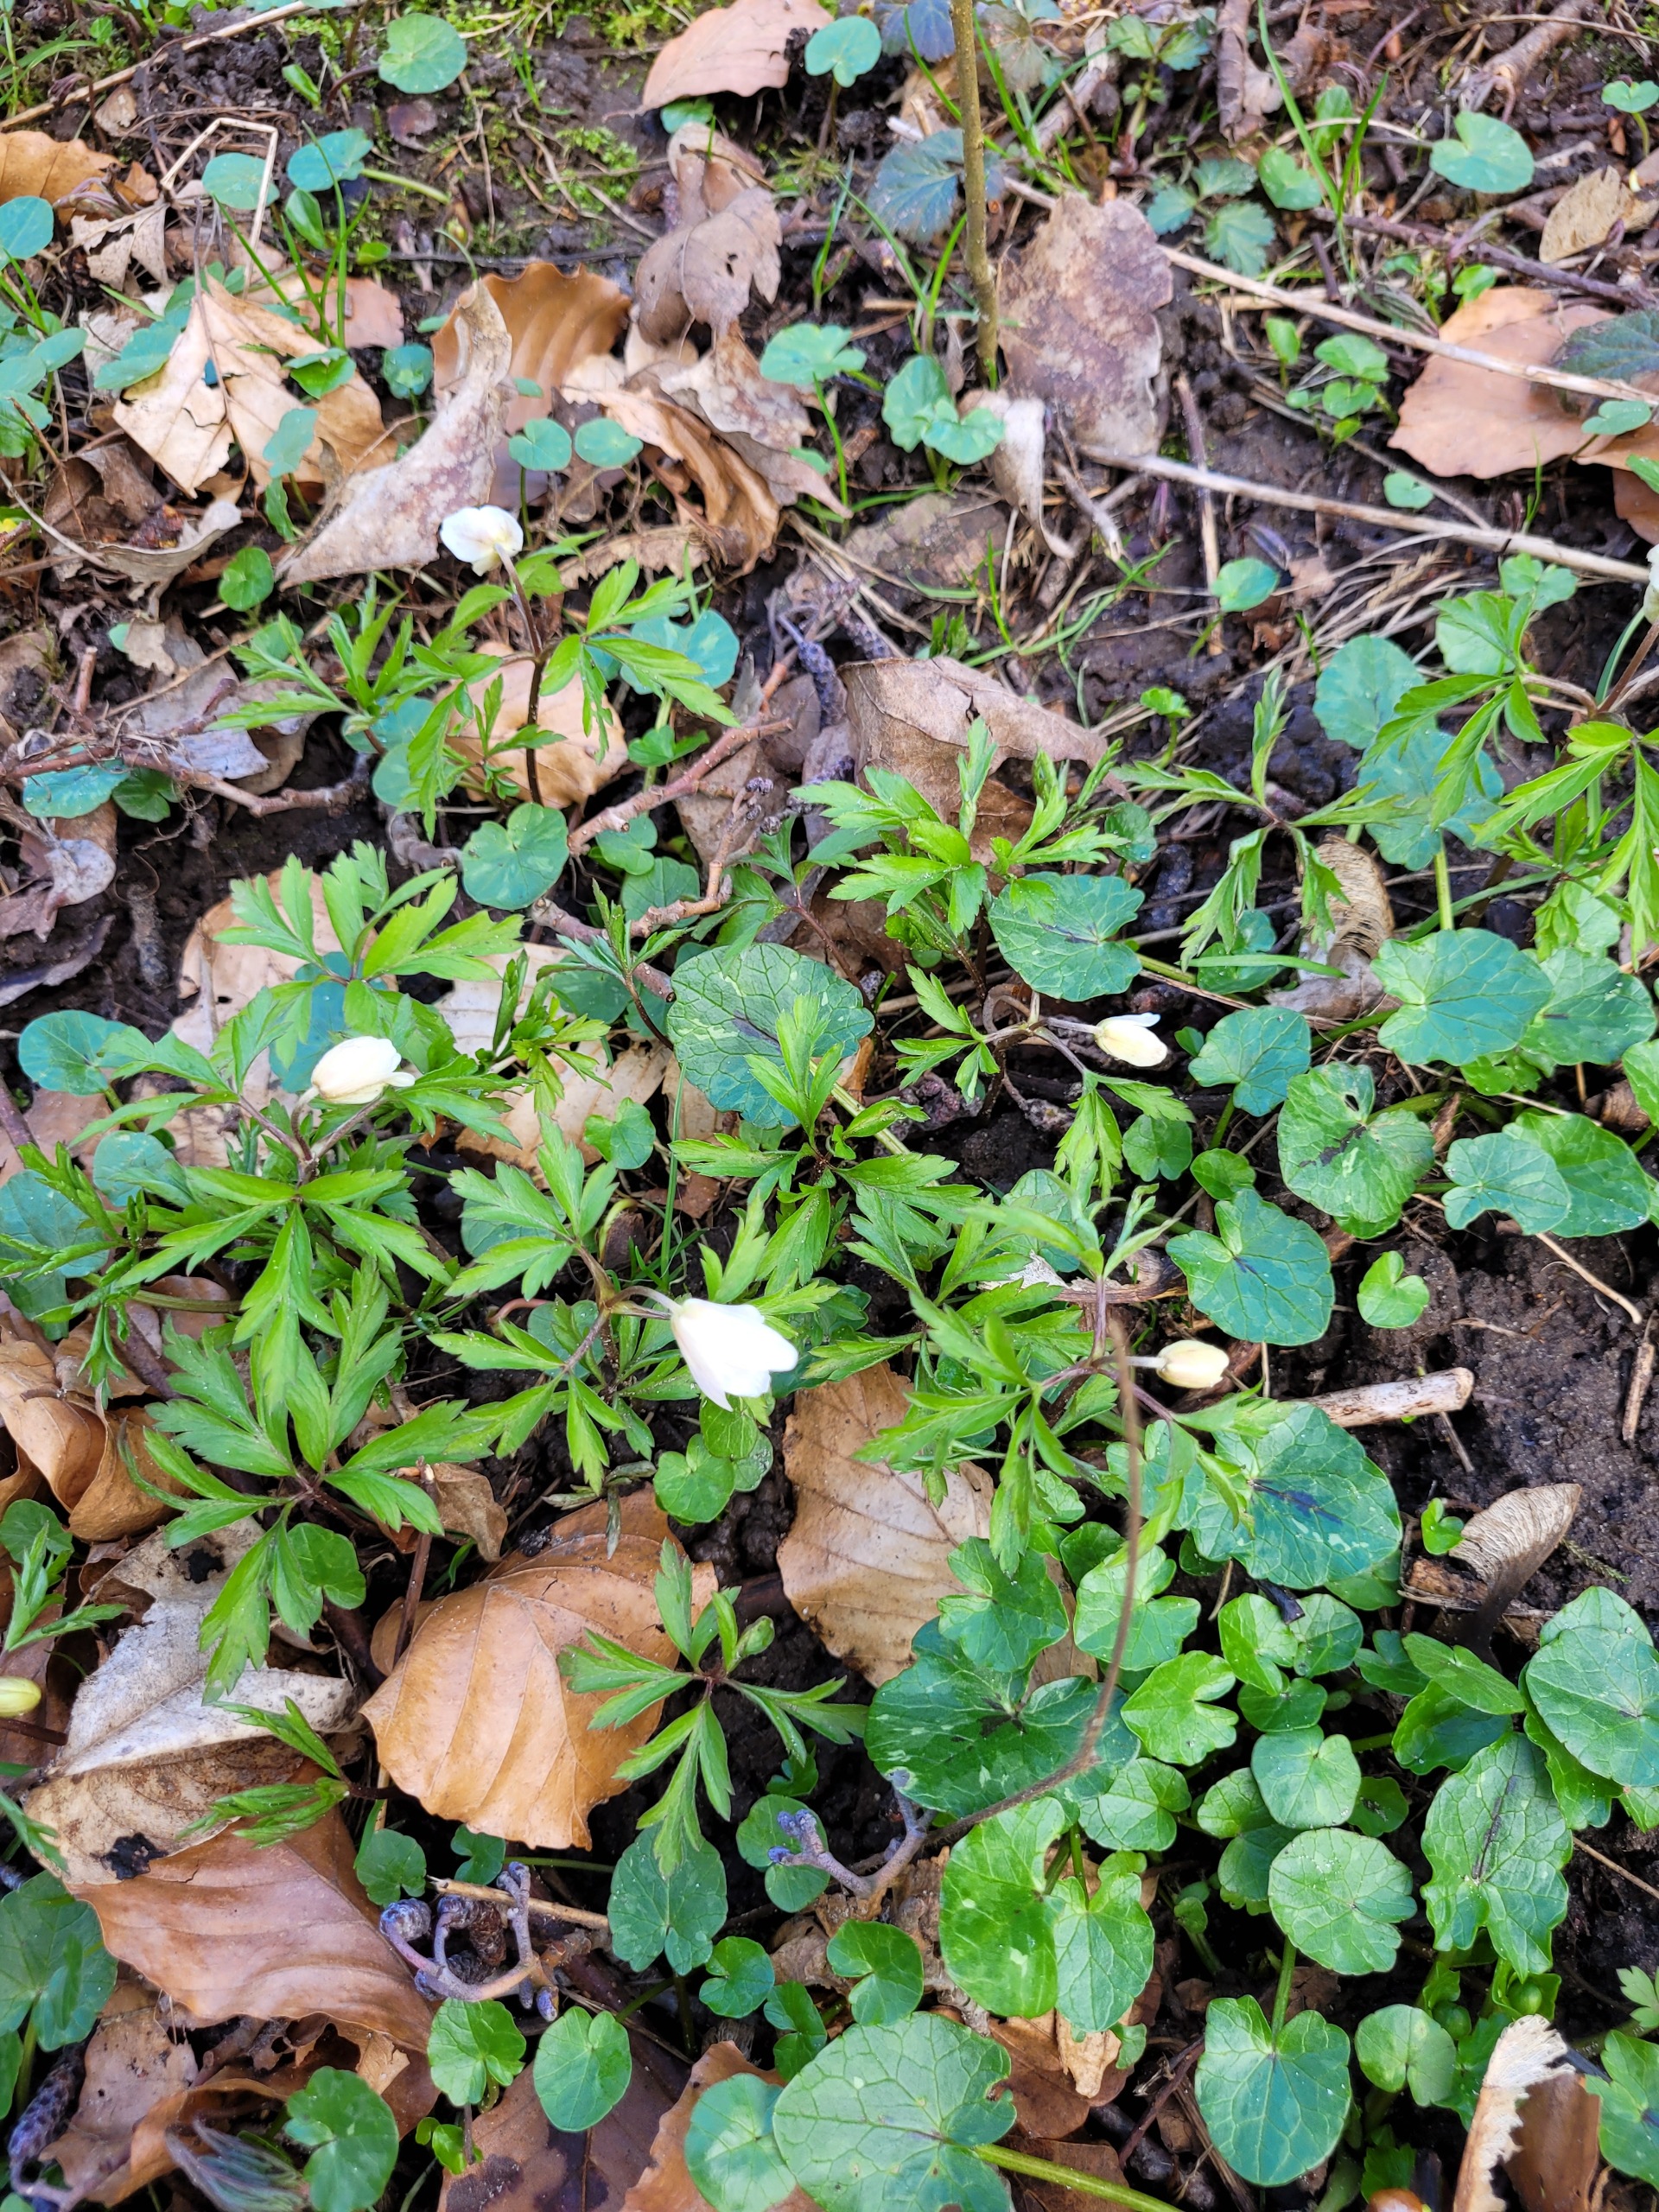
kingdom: Plantae
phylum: Tracheophyta
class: Magnoliopsida
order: Ranunculales
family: Ranunculaceae
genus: Anemone
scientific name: Anemone nemorosa
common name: Hvid anemone
